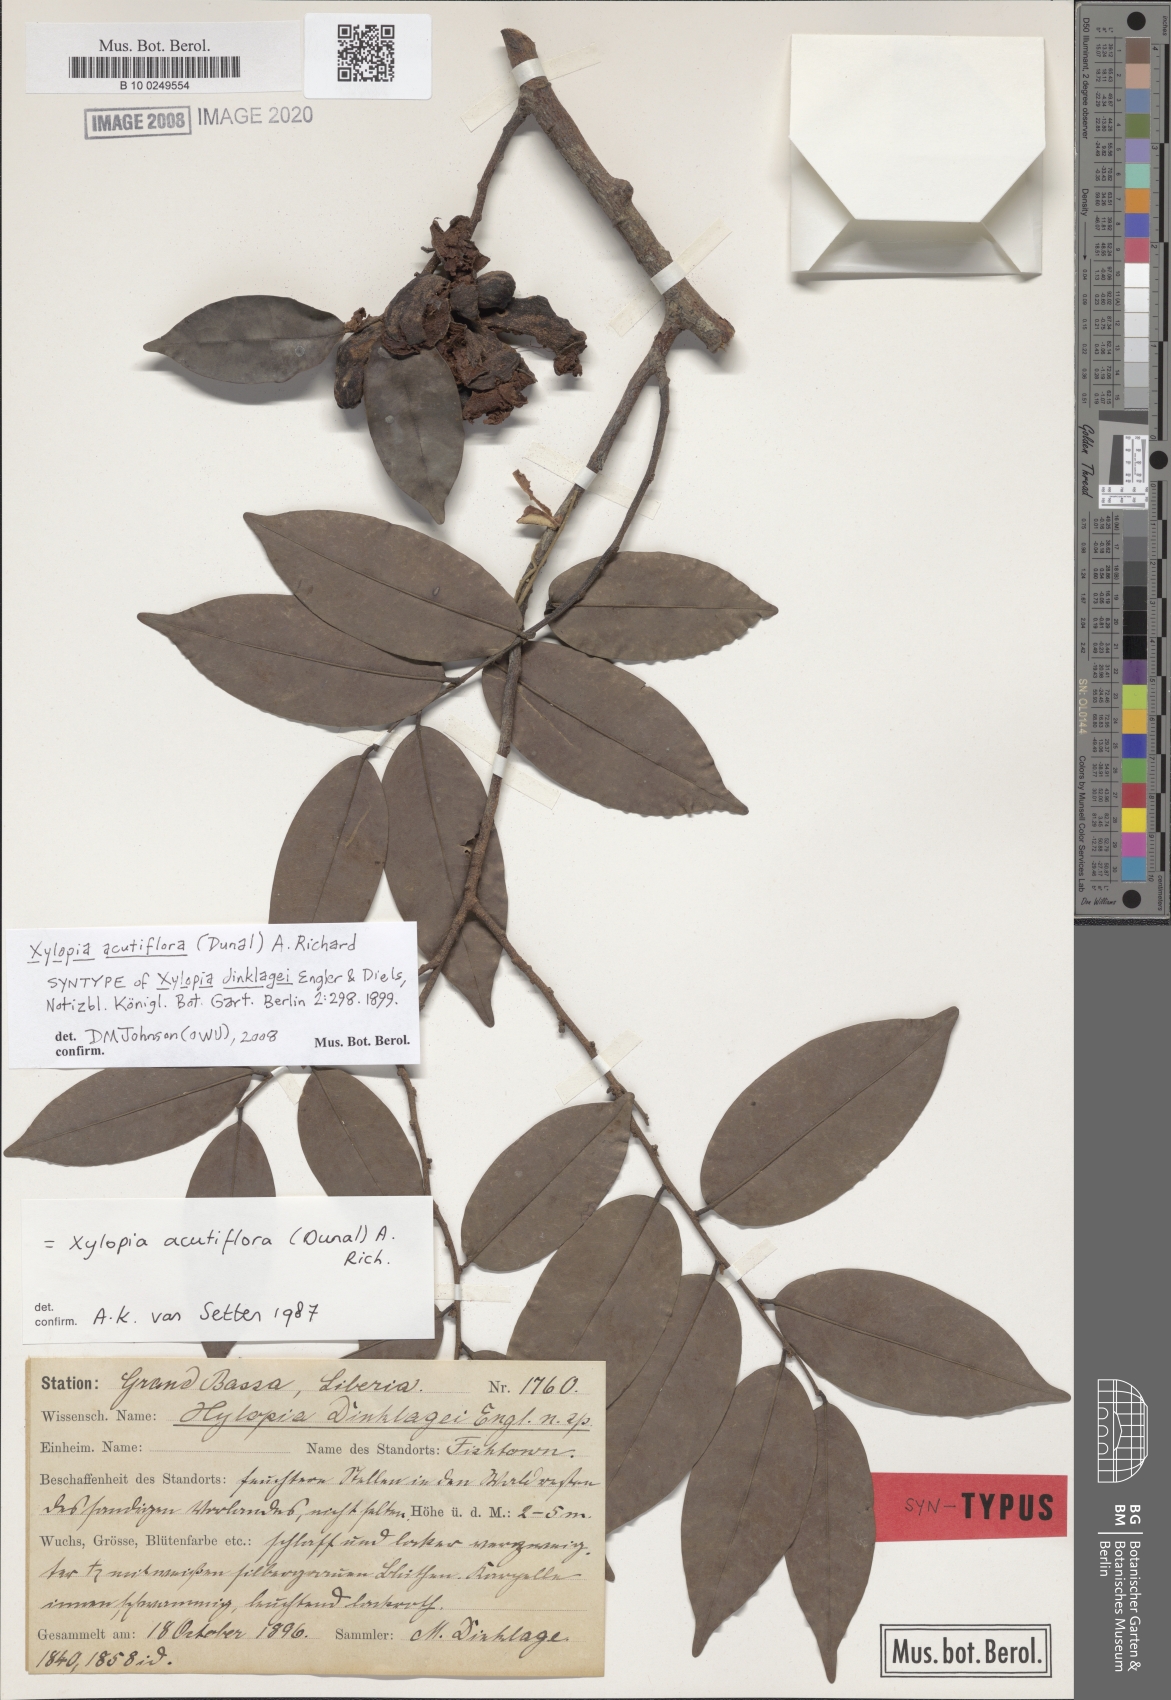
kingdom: Plantae
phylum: Tracheophyta
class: Magnoliopsida
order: Magnoliales
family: Annonaceae
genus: Xylopia
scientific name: Xylopia acutiflora
